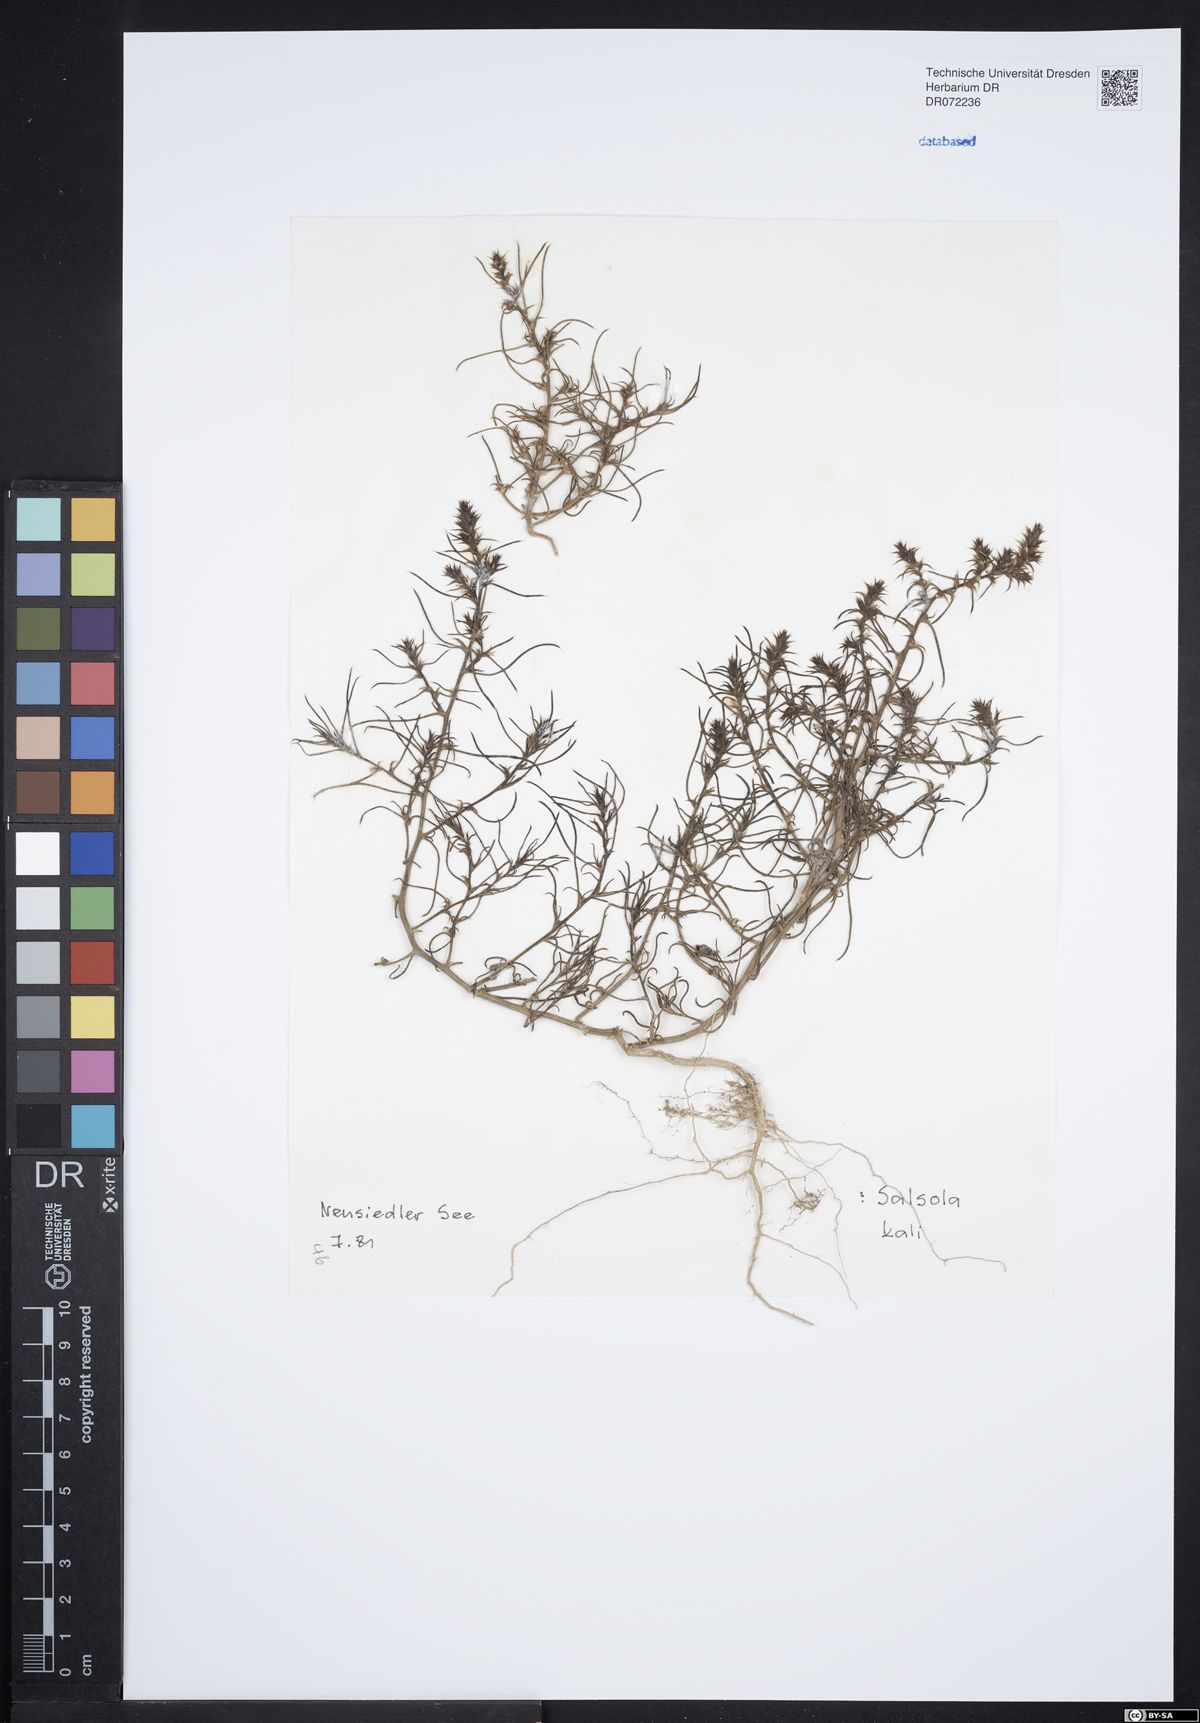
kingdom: Plantae
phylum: Tracheophyta
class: Magnoliopsida
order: Caryophyllales
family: Amaranthaceae
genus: Salsola
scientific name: Salsola kali
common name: Saltwort
